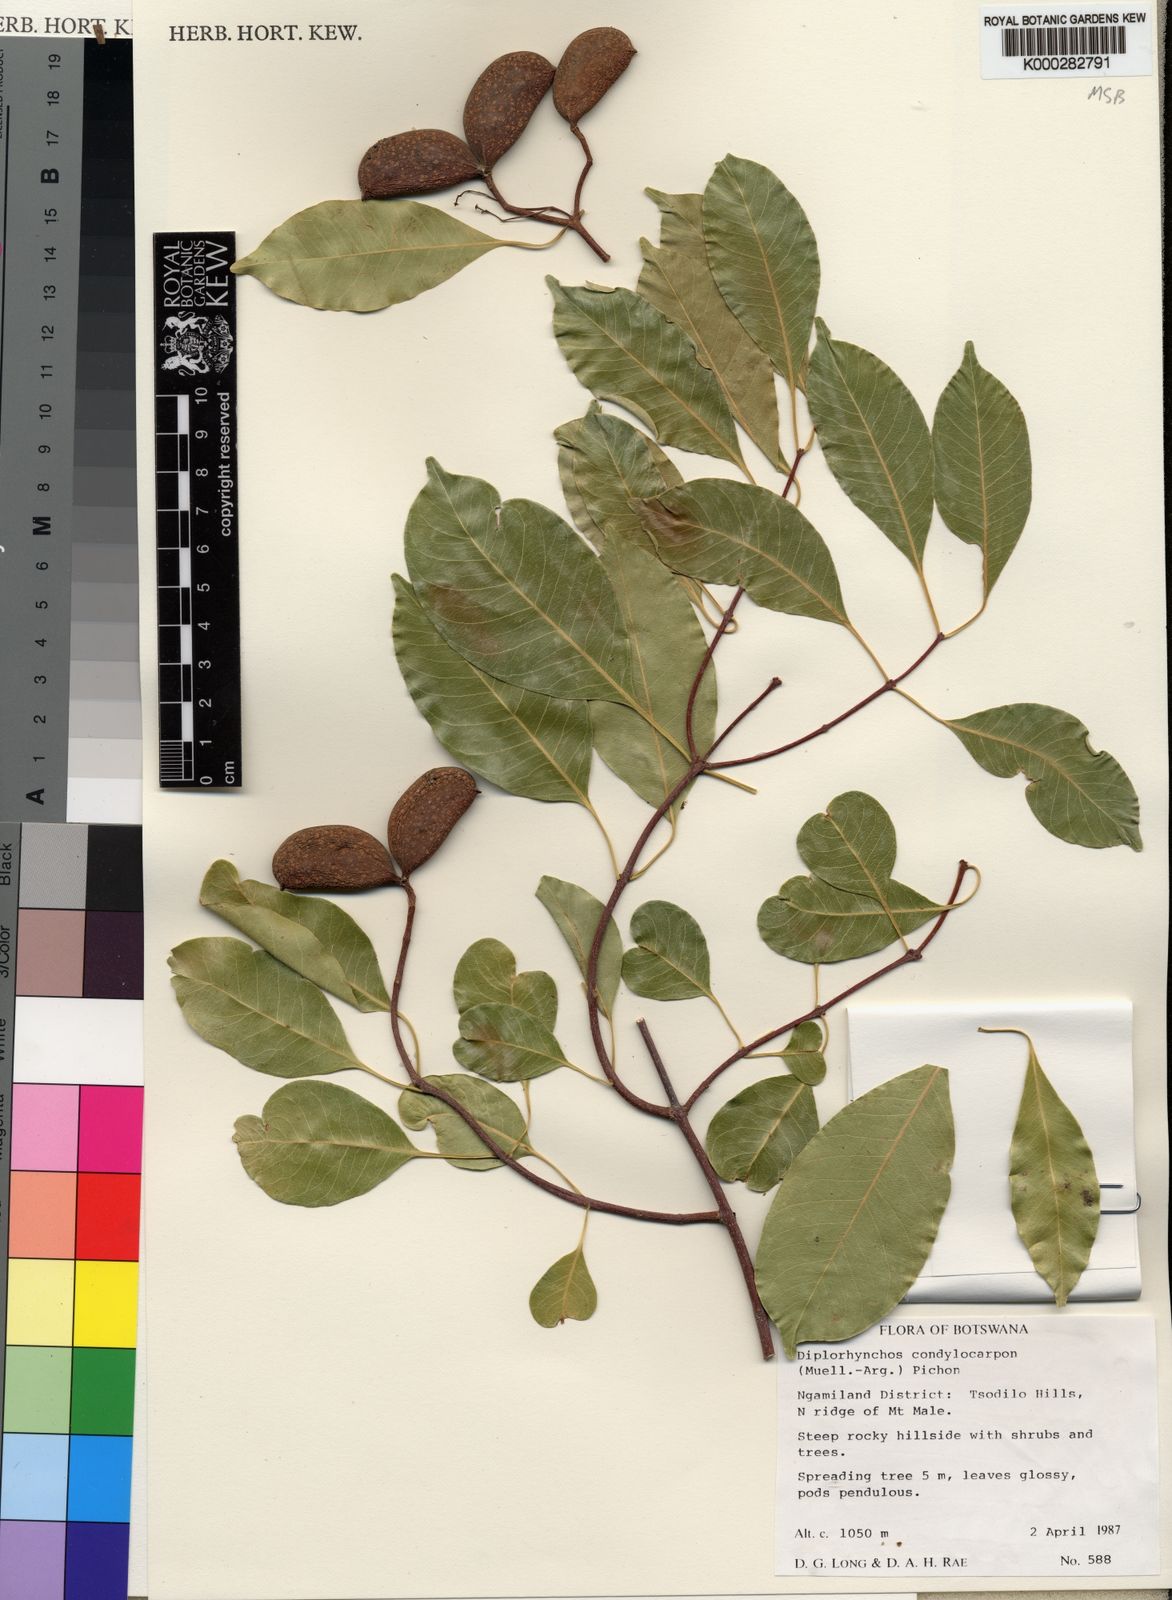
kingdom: Plantae
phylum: Tracheophyta
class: Magnoliopsida
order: Gentianales
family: Apocynaceae
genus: Diplorhynchus
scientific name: Diplorhynchus
